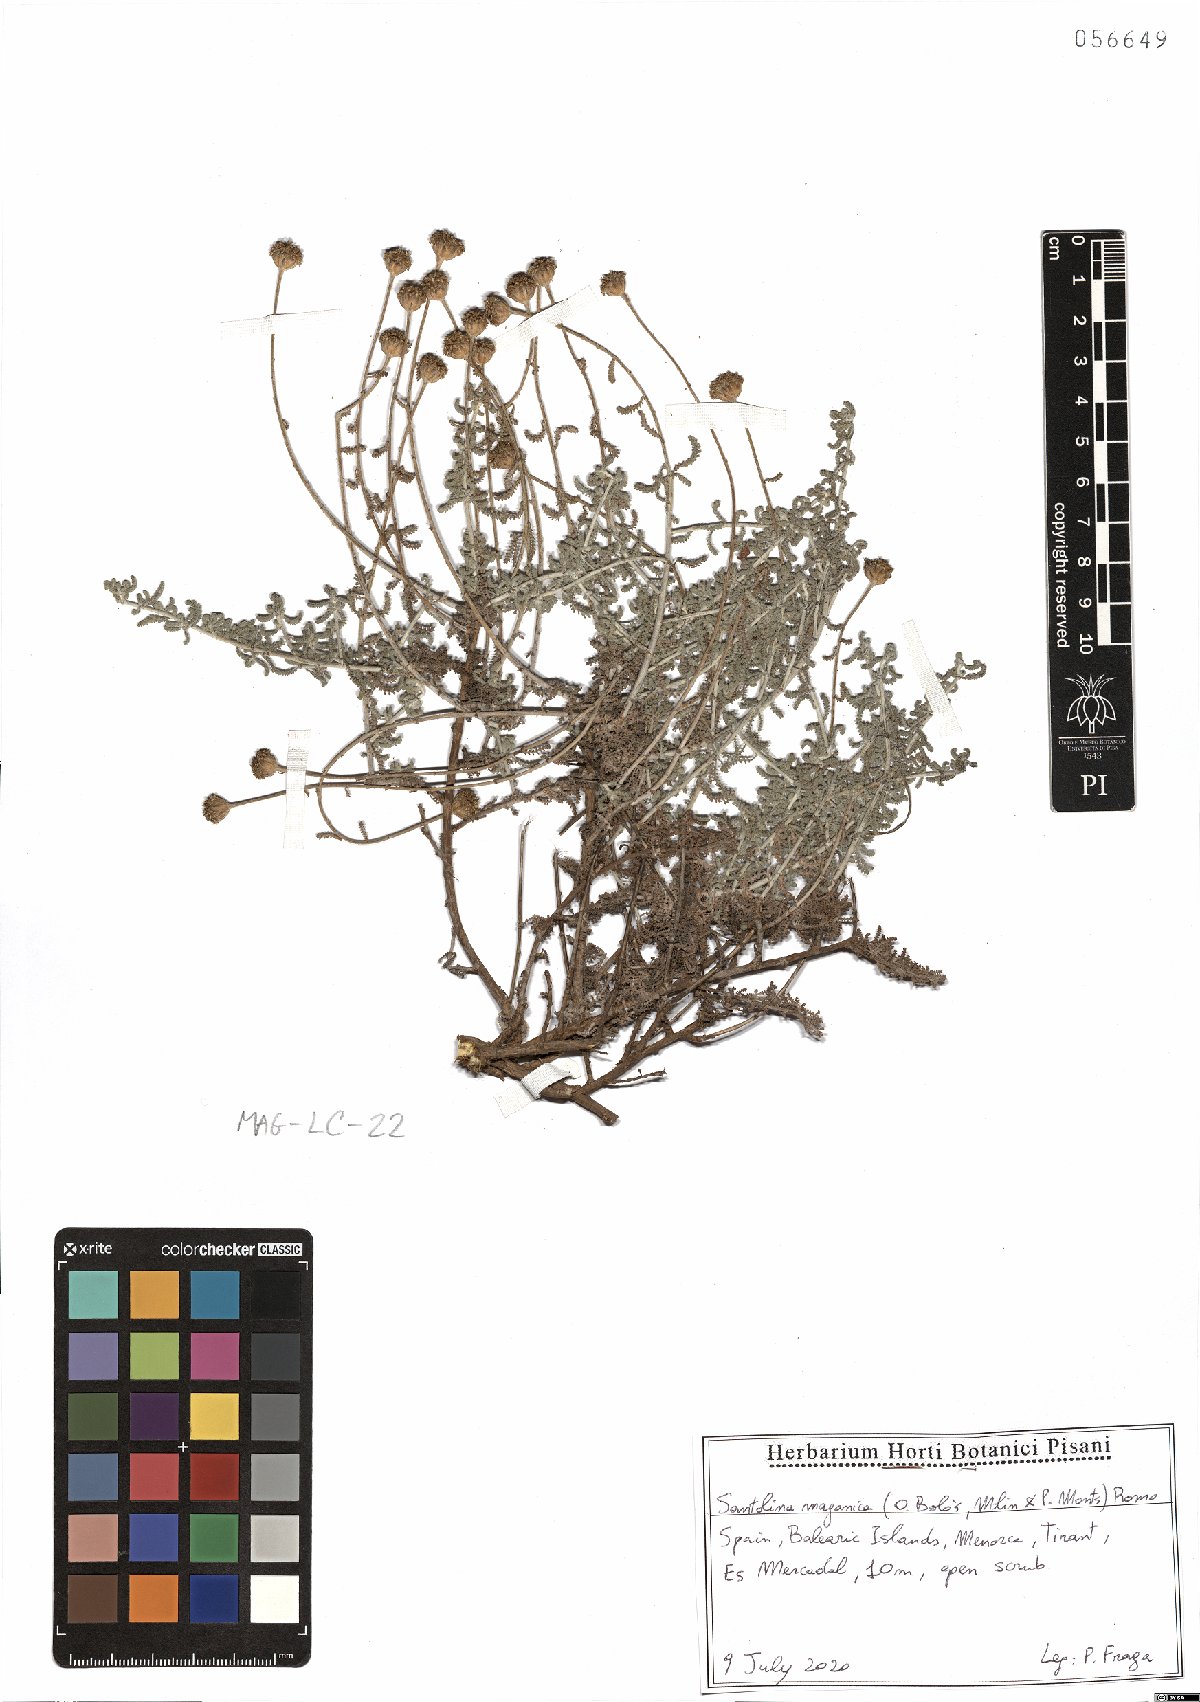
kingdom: Plantae
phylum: Tracheophyta
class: Magnoliopsida
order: Asterales
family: Asteraceae
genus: Santolina
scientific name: Santolina magonica
